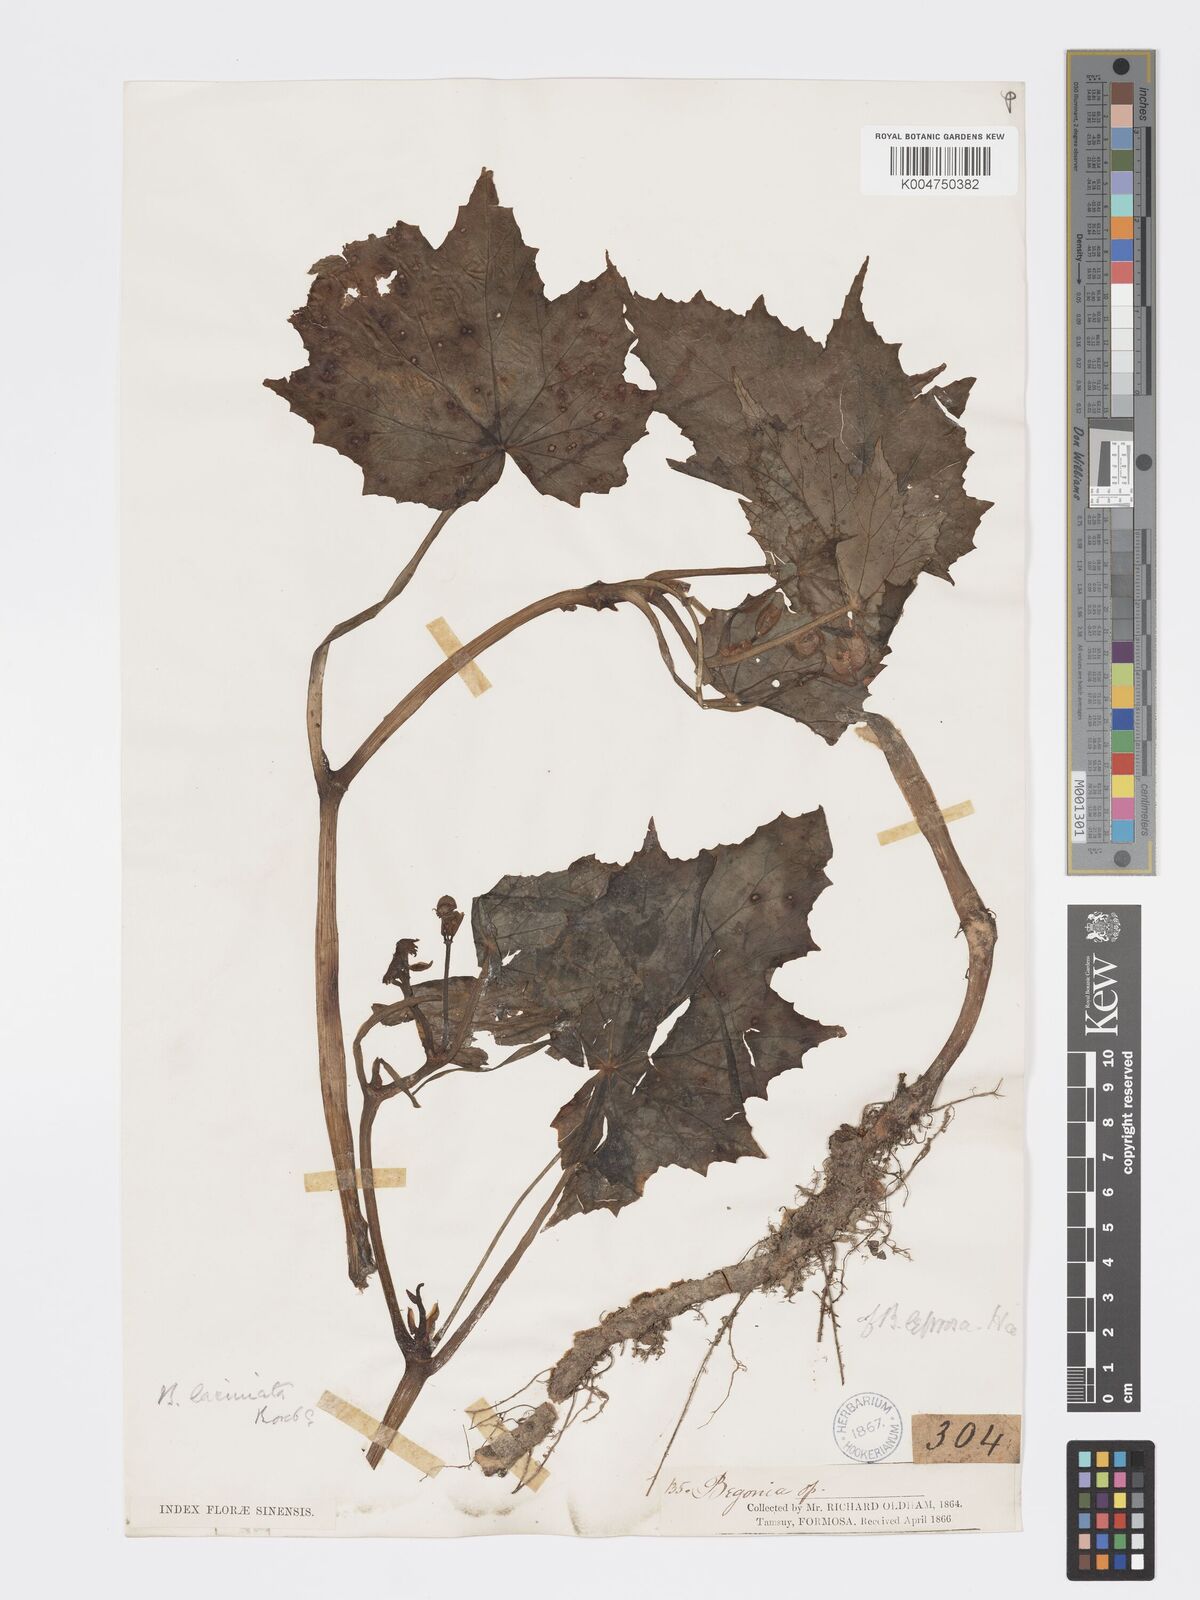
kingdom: Plantae
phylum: Tracheophyta
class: Magnoliopsida
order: Cucurbitales
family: Begoniaceae
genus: Begonia
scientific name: Begonia palmata
